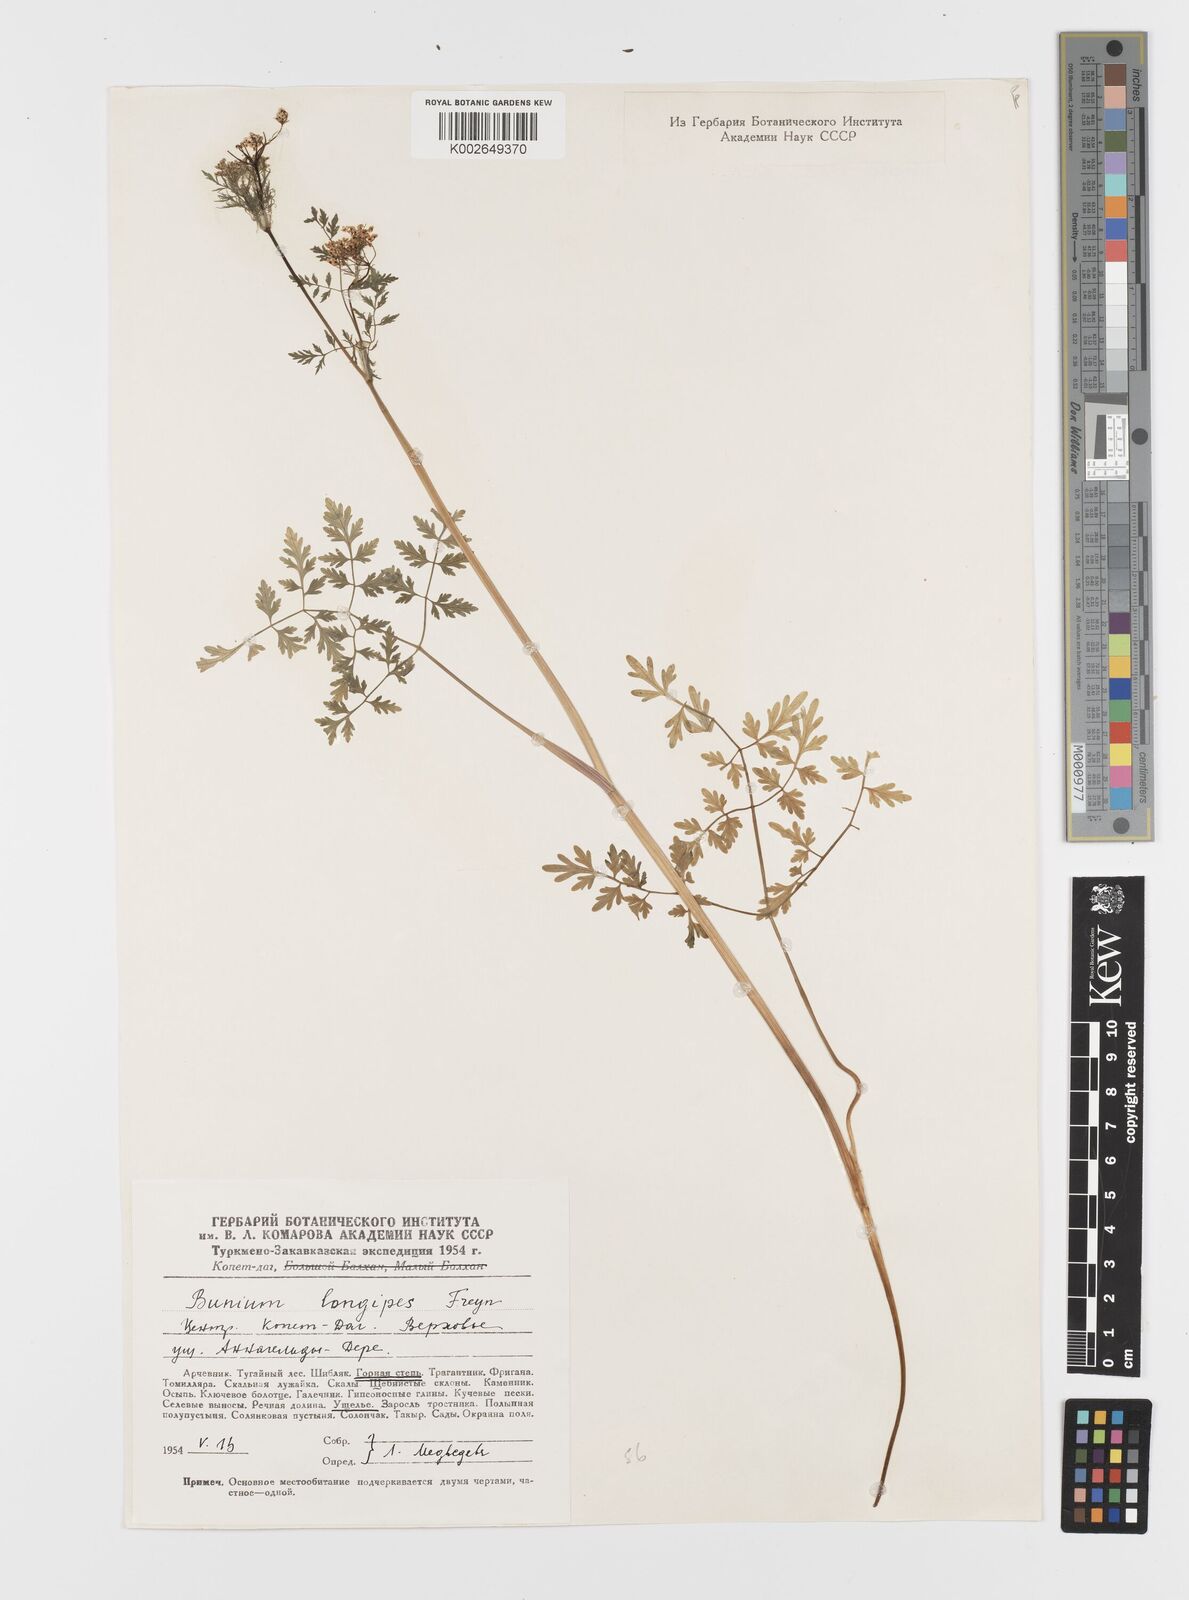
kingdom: Plantae
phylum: Tracheophyta
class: Magnoliopsida
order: Apiales
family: Apiaceae
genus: Elwendia
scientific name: Elwendia longipes
